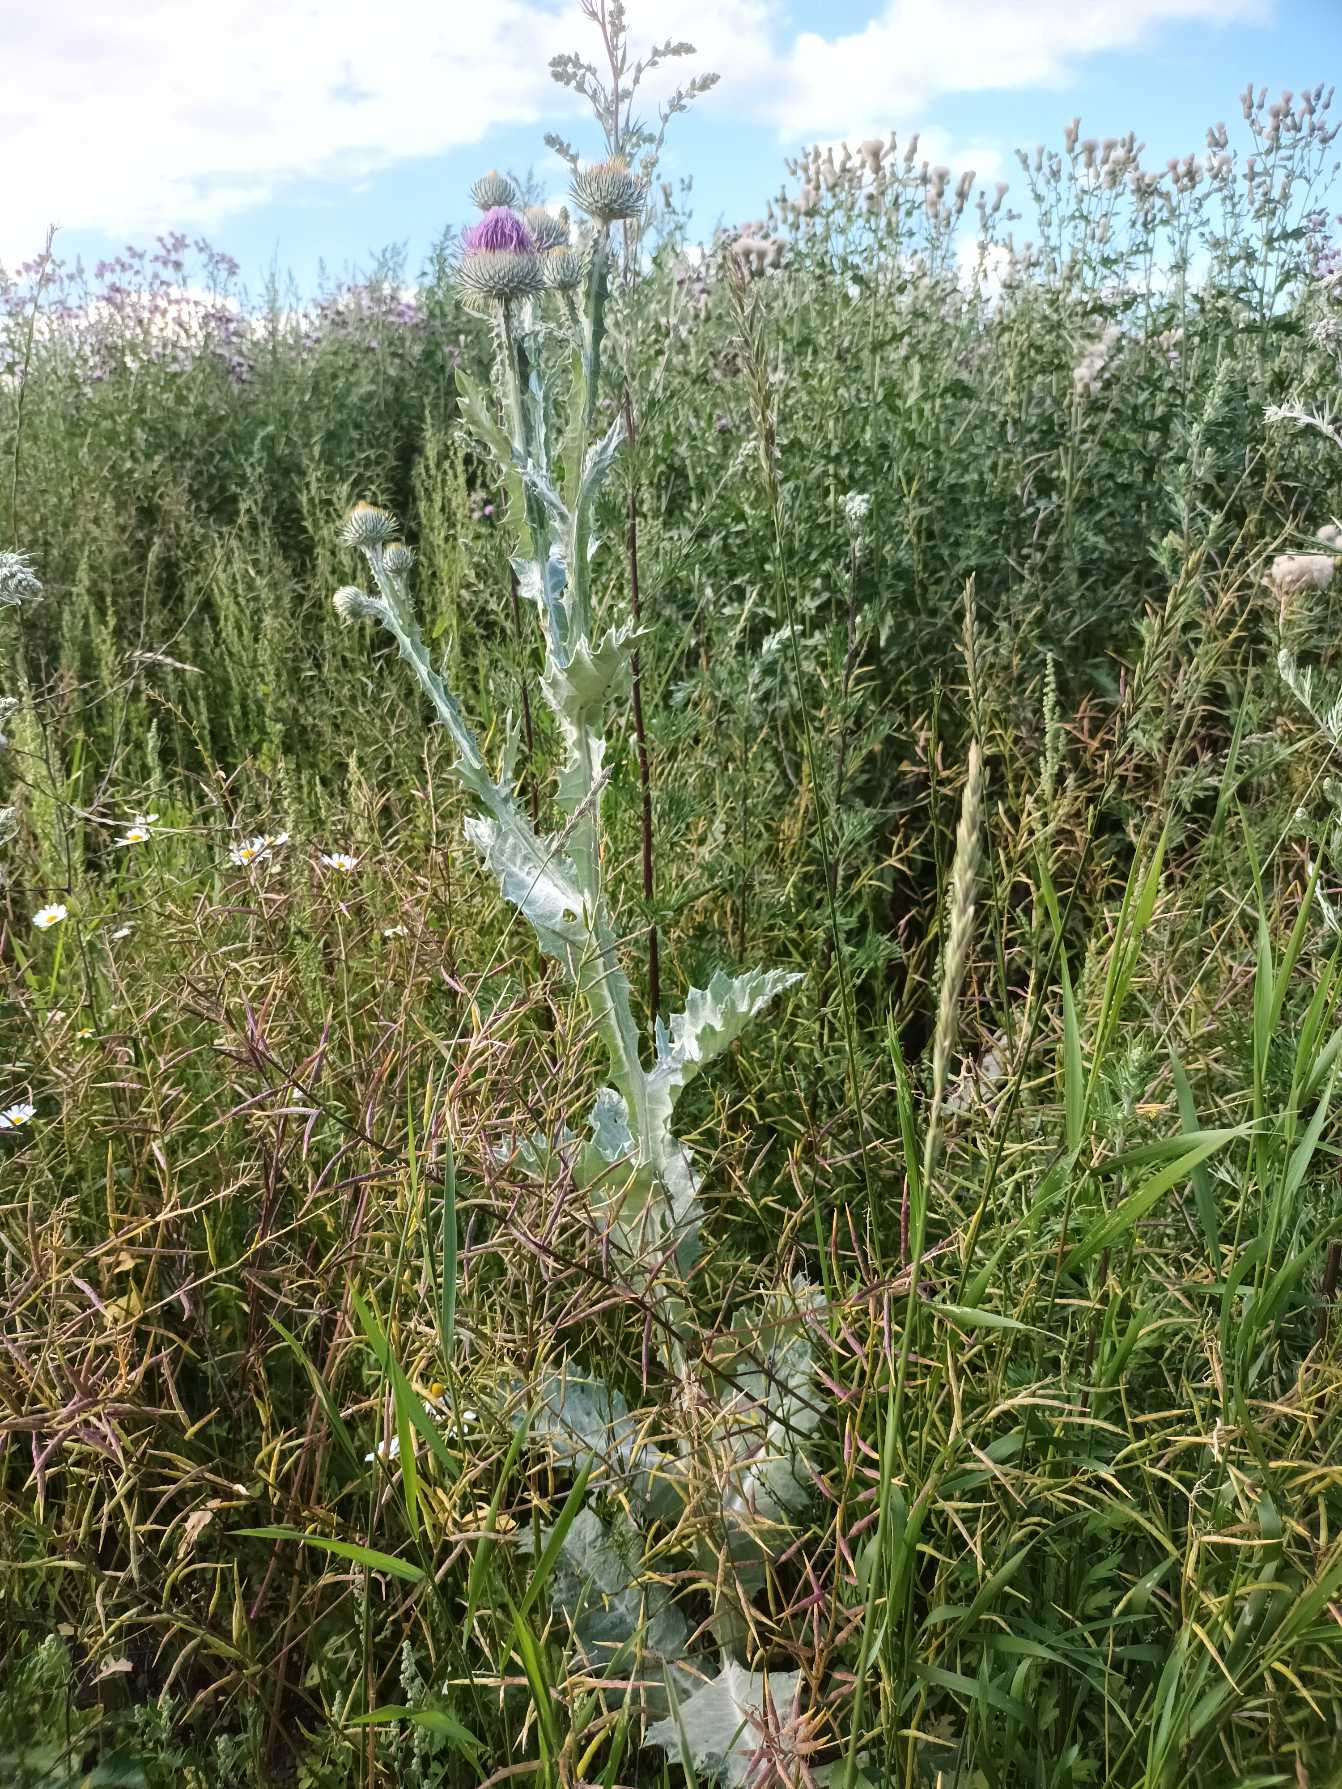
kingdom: Plantae
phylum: Tracheophyta
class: Magnoliopsida
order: Asterales
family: Asteraceae
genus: Onopordum
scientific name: Onopordum acanthium
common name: Æselfoder
